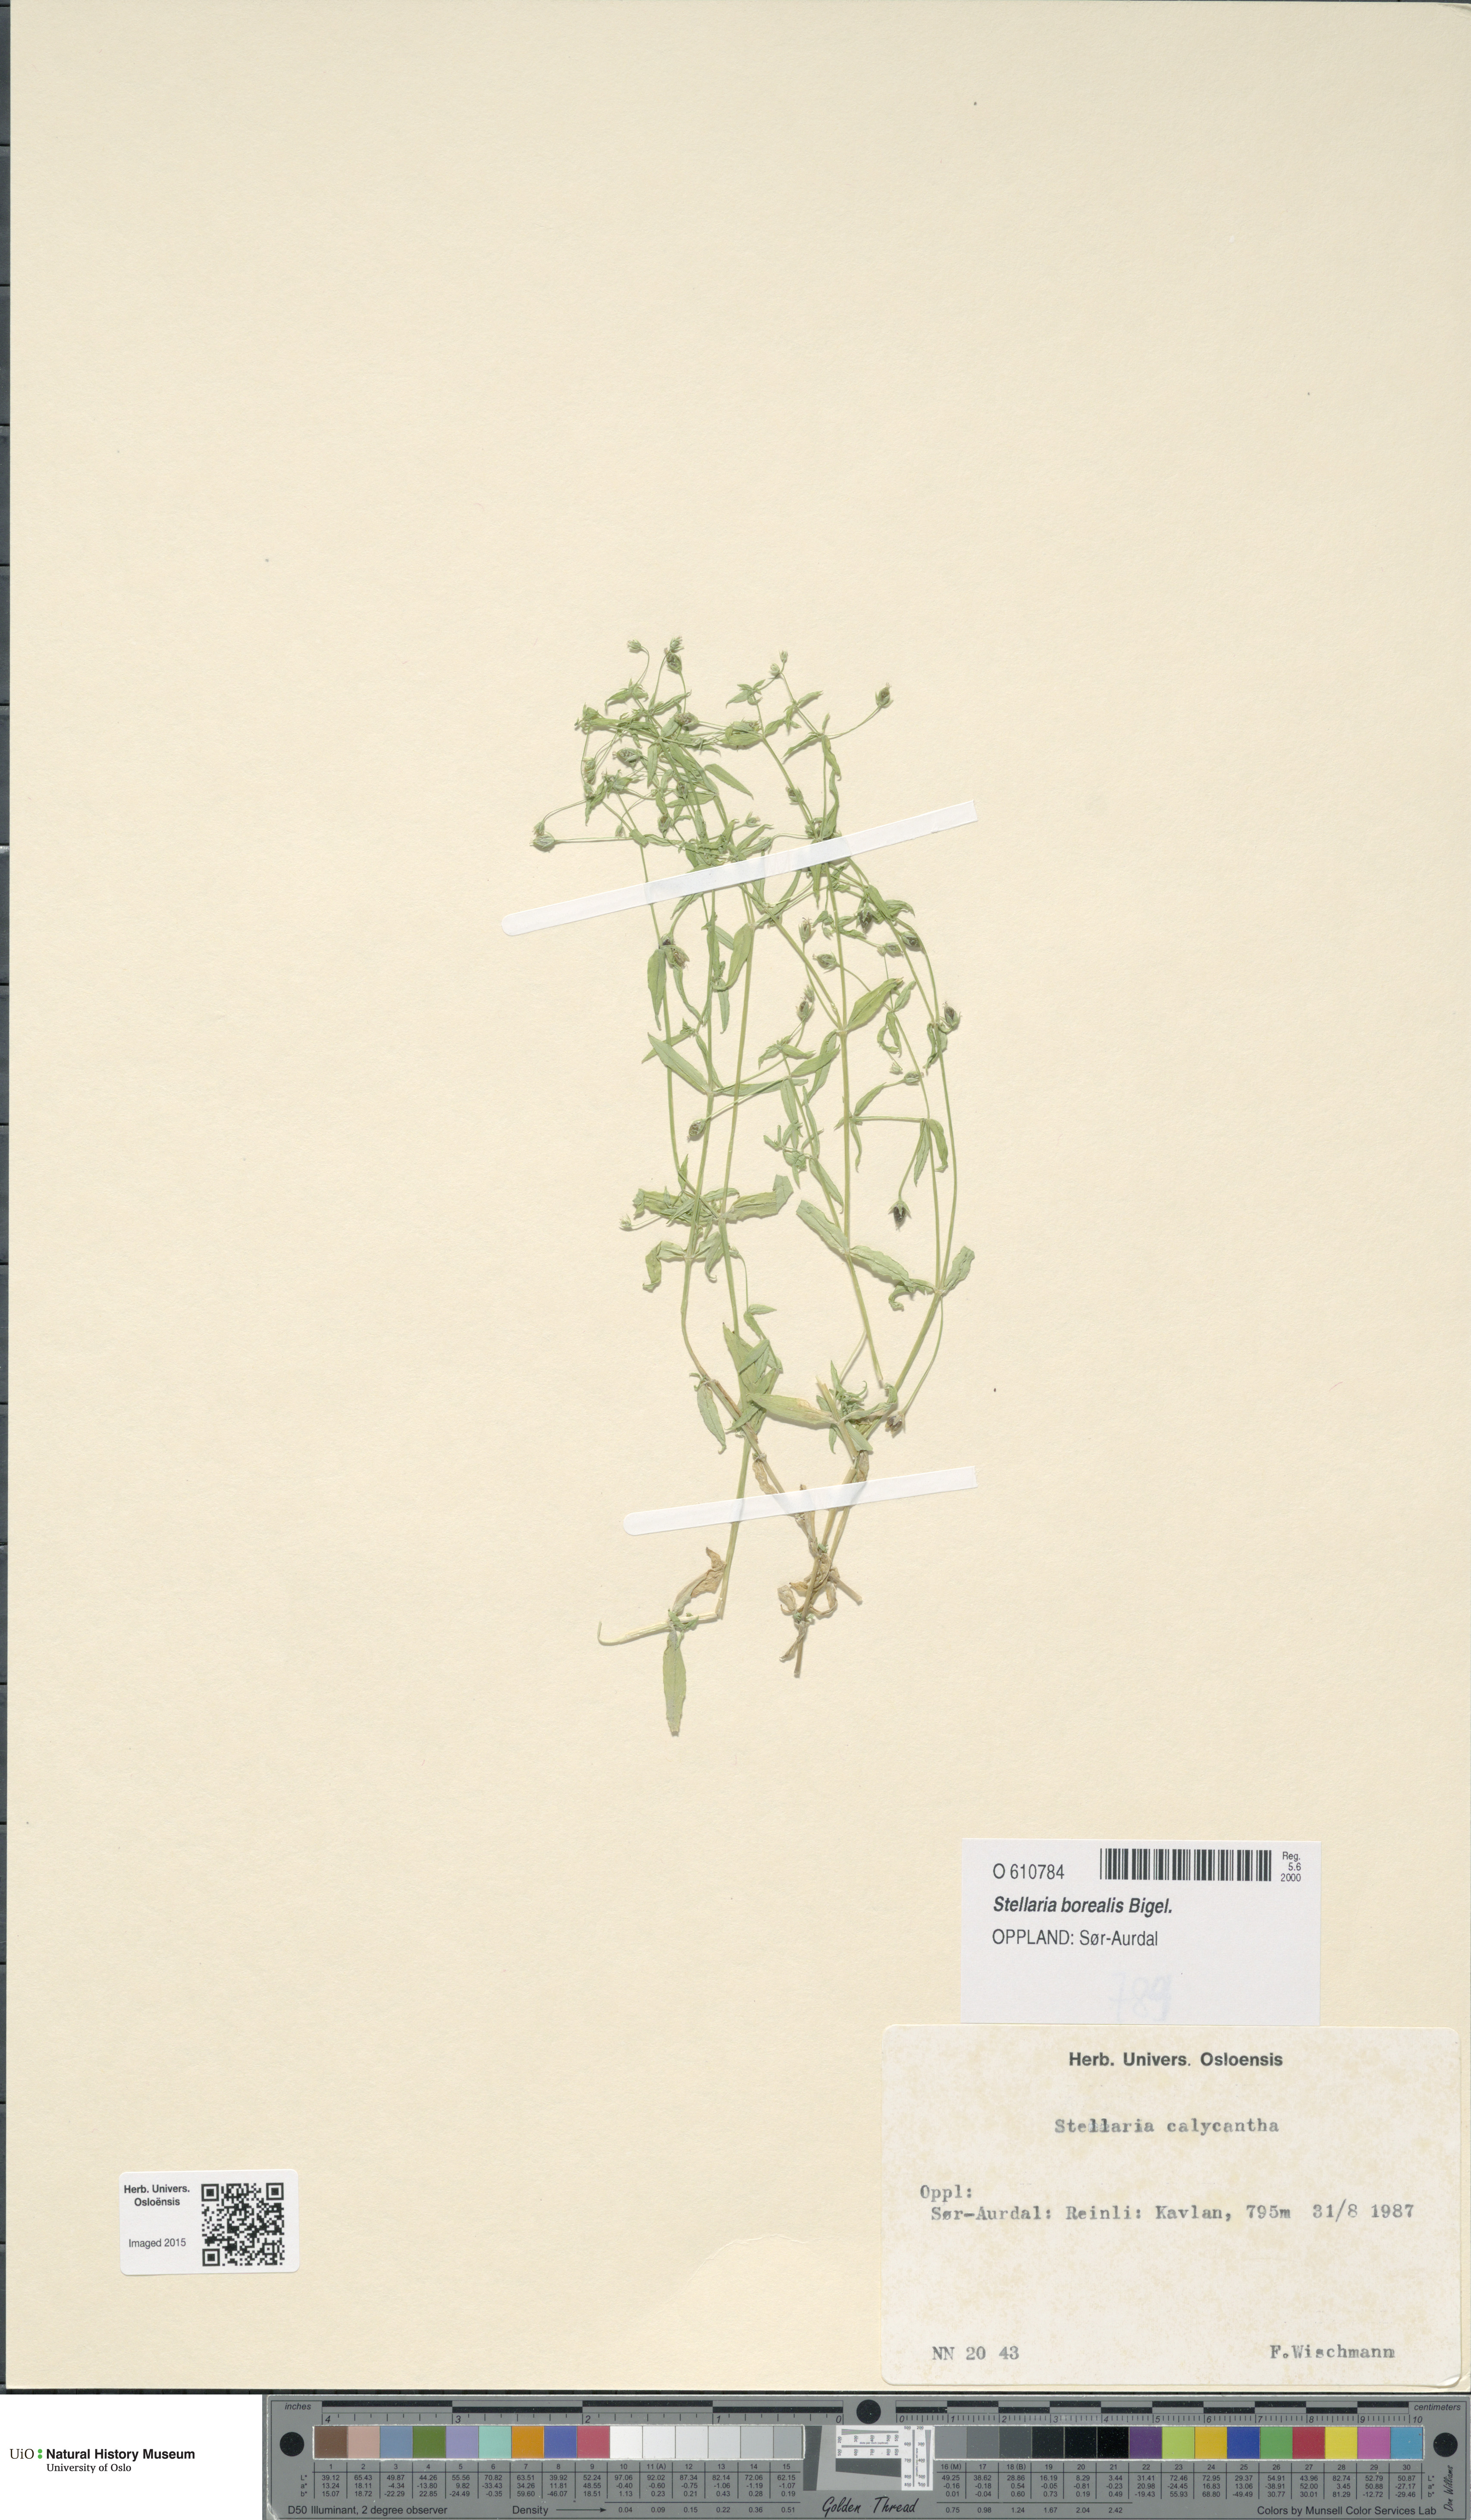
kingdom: Plantae
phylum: Tracheophyta
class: Magnoliopsida
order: Caryophyllales
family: Caryophyllaceae
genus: Stellaria
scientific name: Stellaria borealis
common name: Boreal starwort
